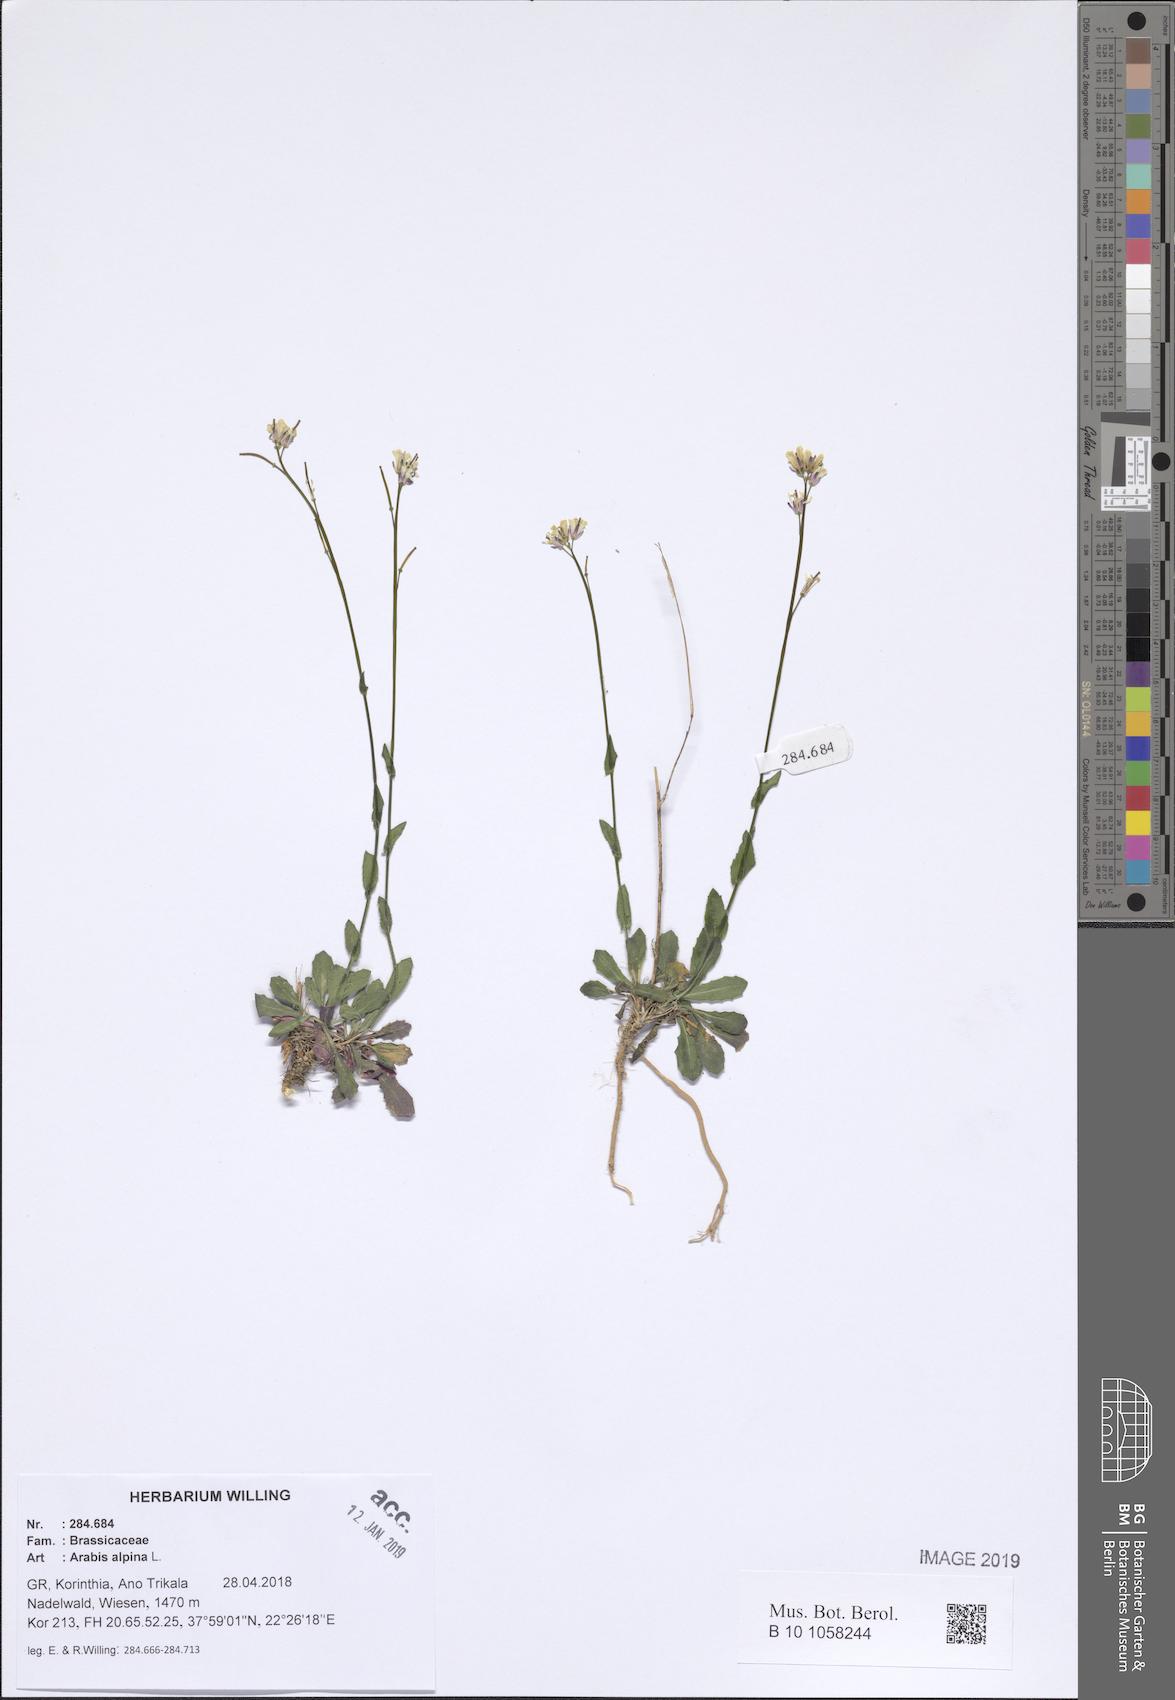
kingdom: Plantae
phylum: Tracheophyta
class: Magnoliopsida
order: Brassicales
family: Brassicaceae
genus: Arabis
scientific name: Arabis alpina
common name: Alpine rock-cress
